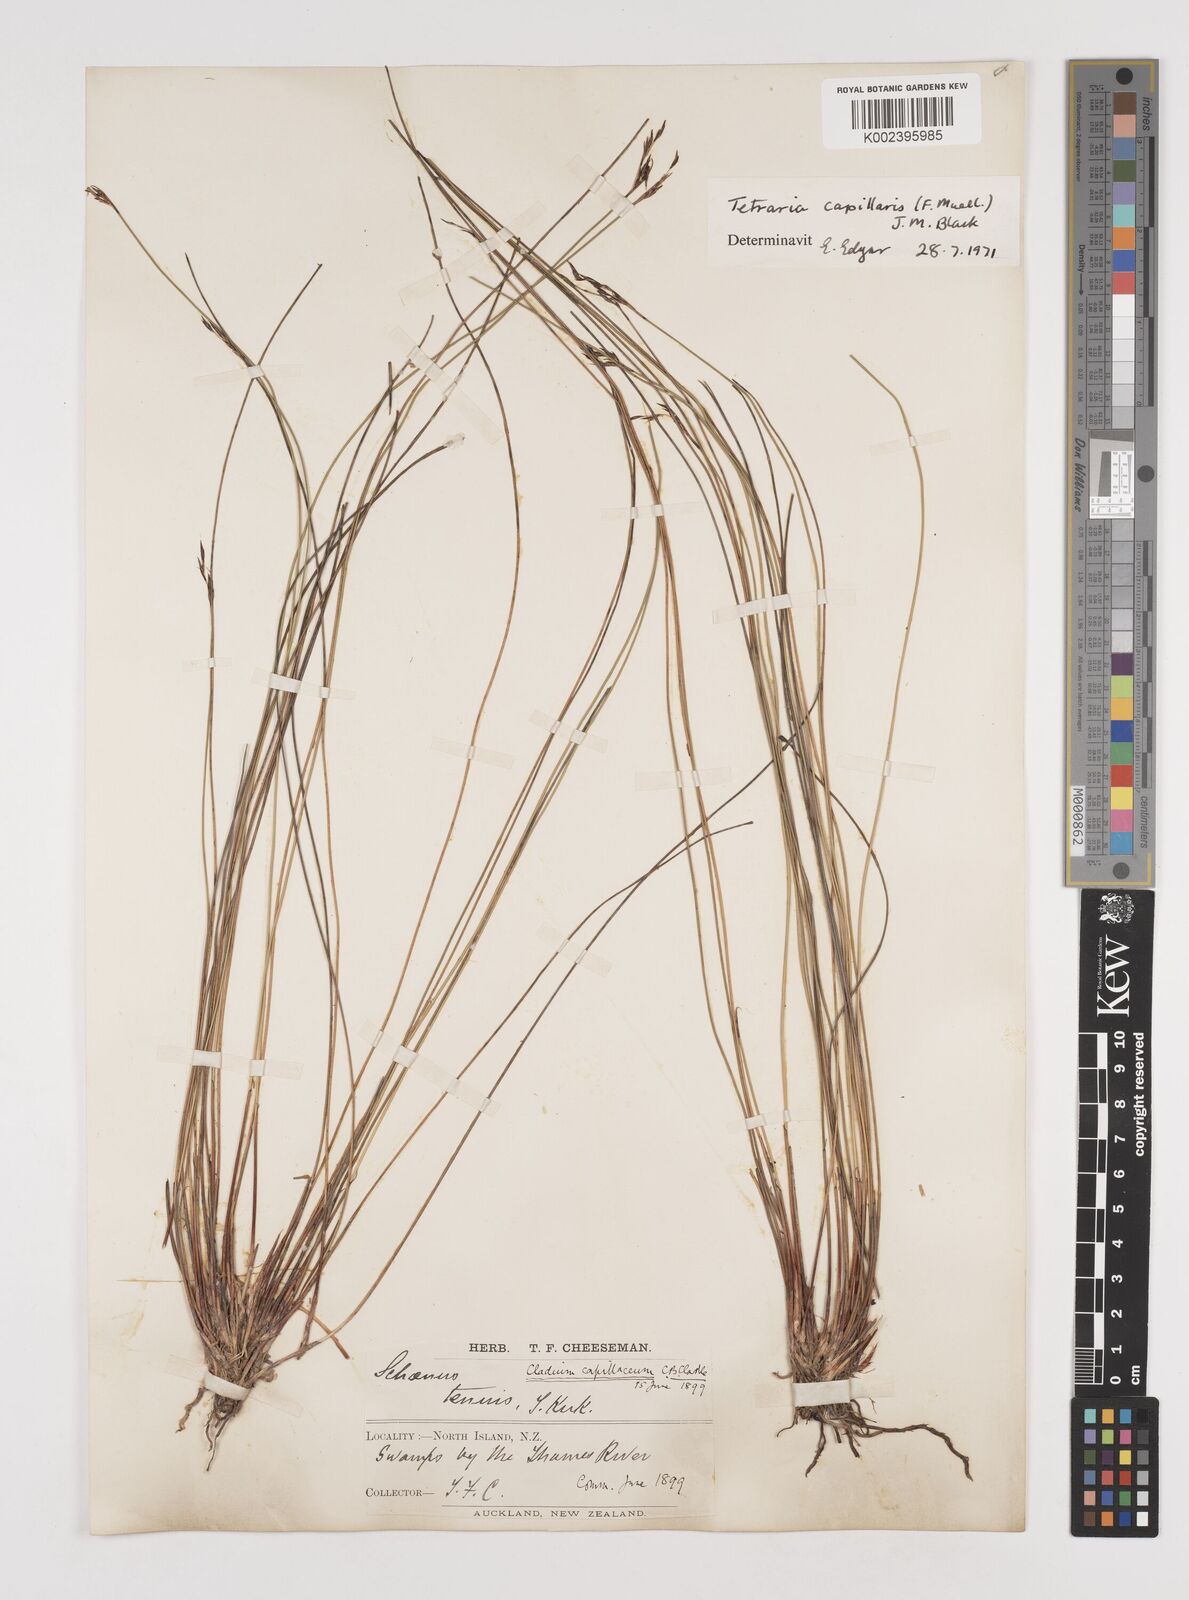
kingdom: Plantae
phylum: Tracheophyta
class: Liliopsida
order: Poales
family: Cyperaceae
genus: Tetraria
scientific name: Tetraria capillaris
